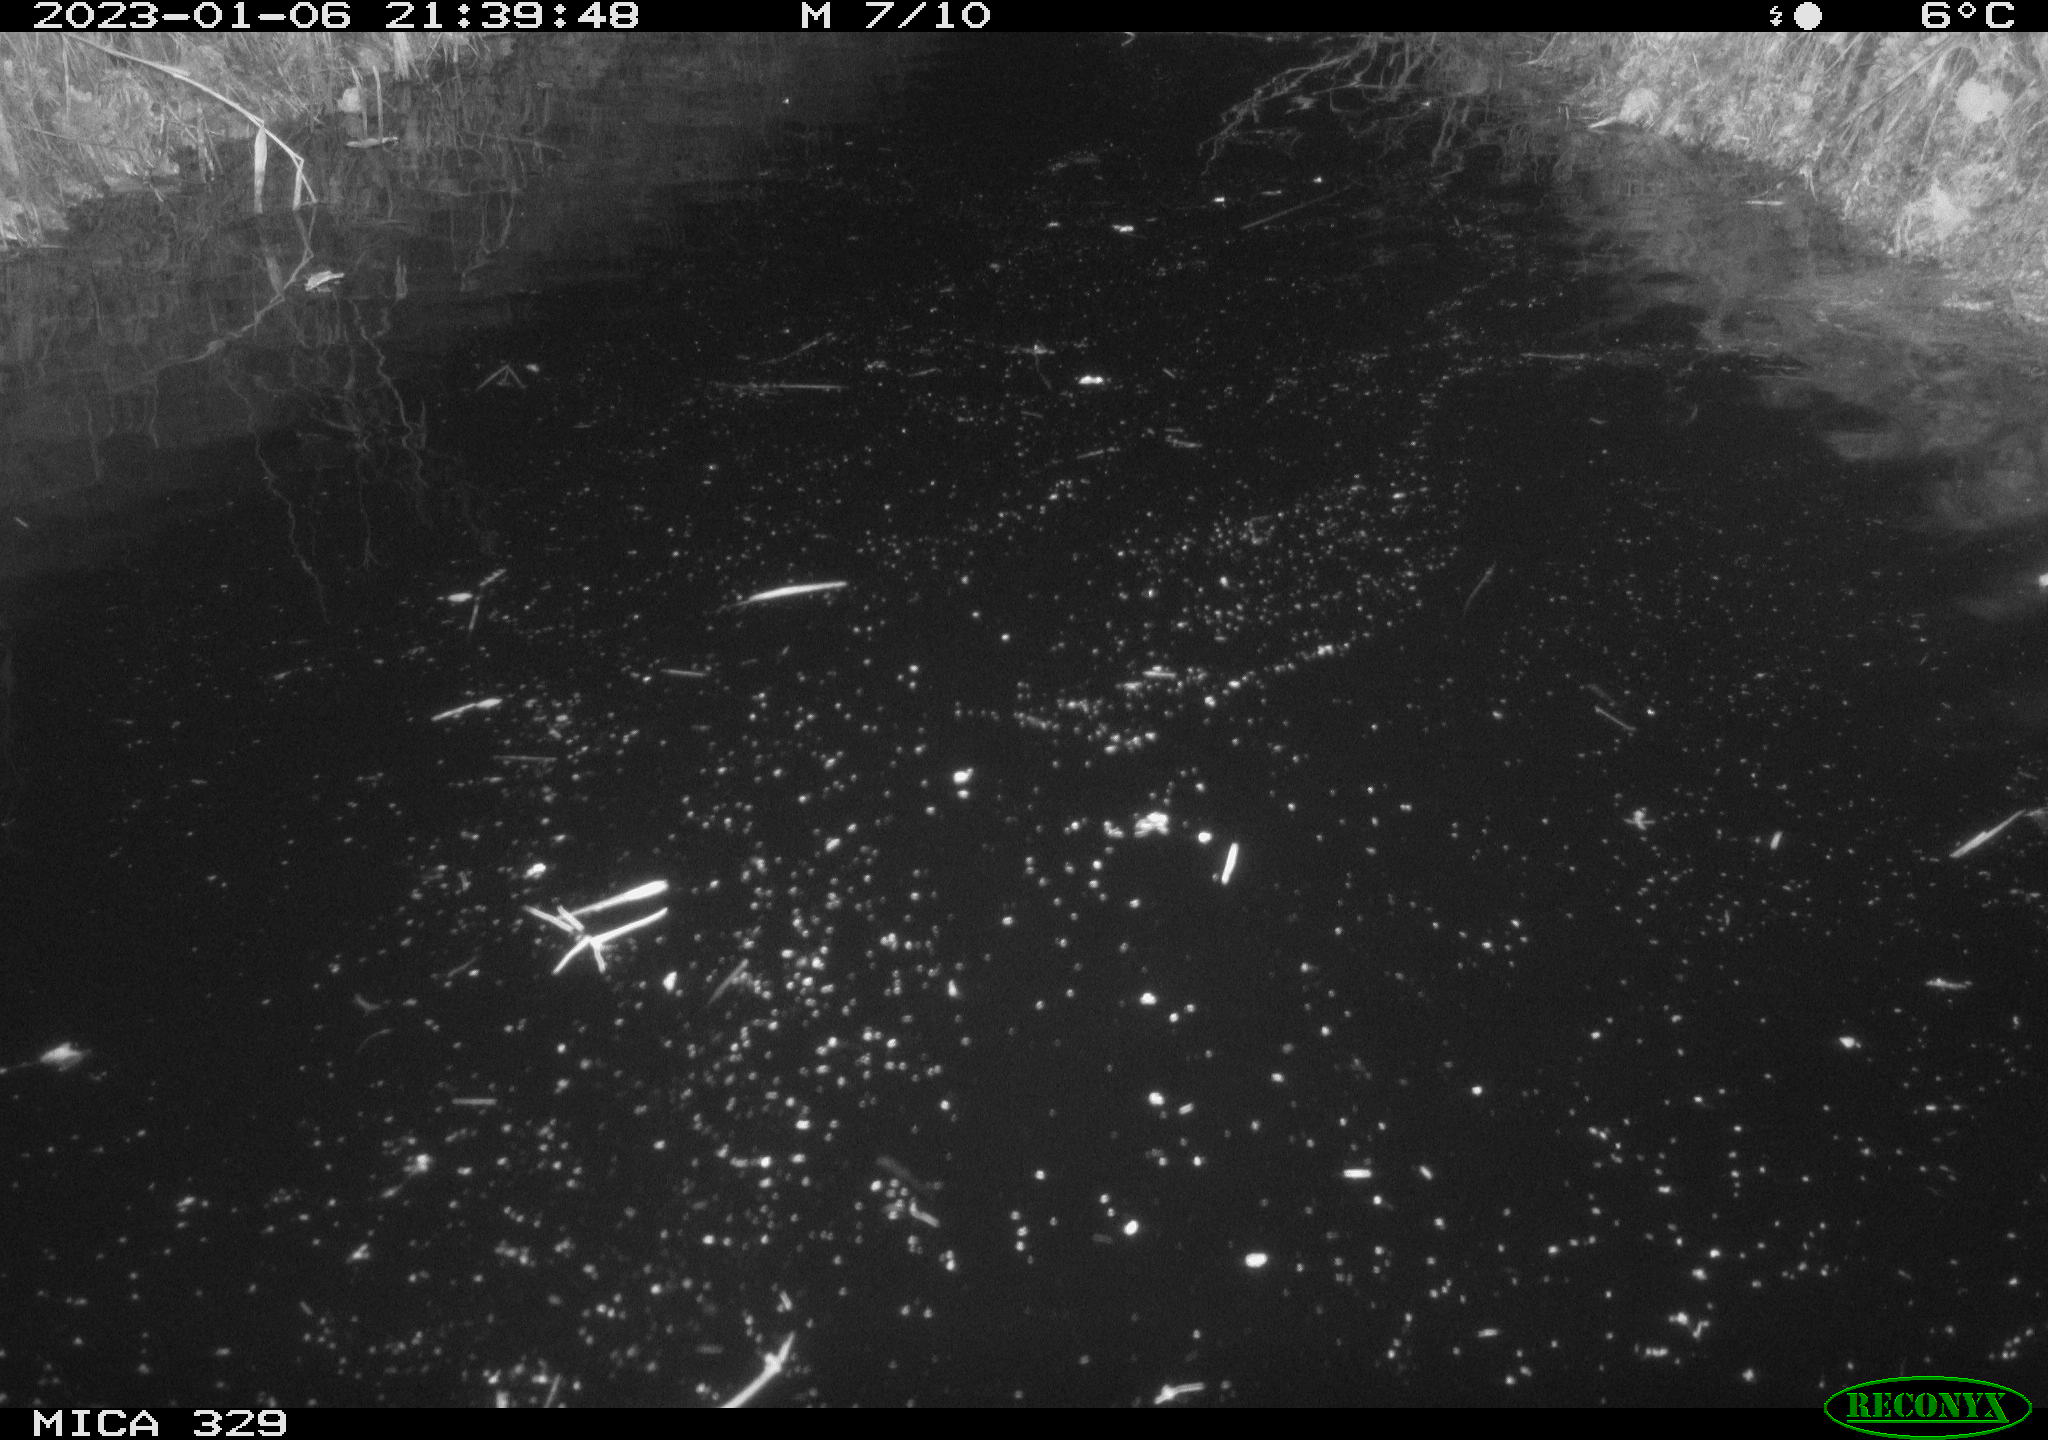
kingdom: Animalia
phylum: Chordata
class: Mammalia
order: Rodentia
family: Cricetidae
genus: Ondatra
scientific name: Ondatra zibethicus
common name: Muskrat
